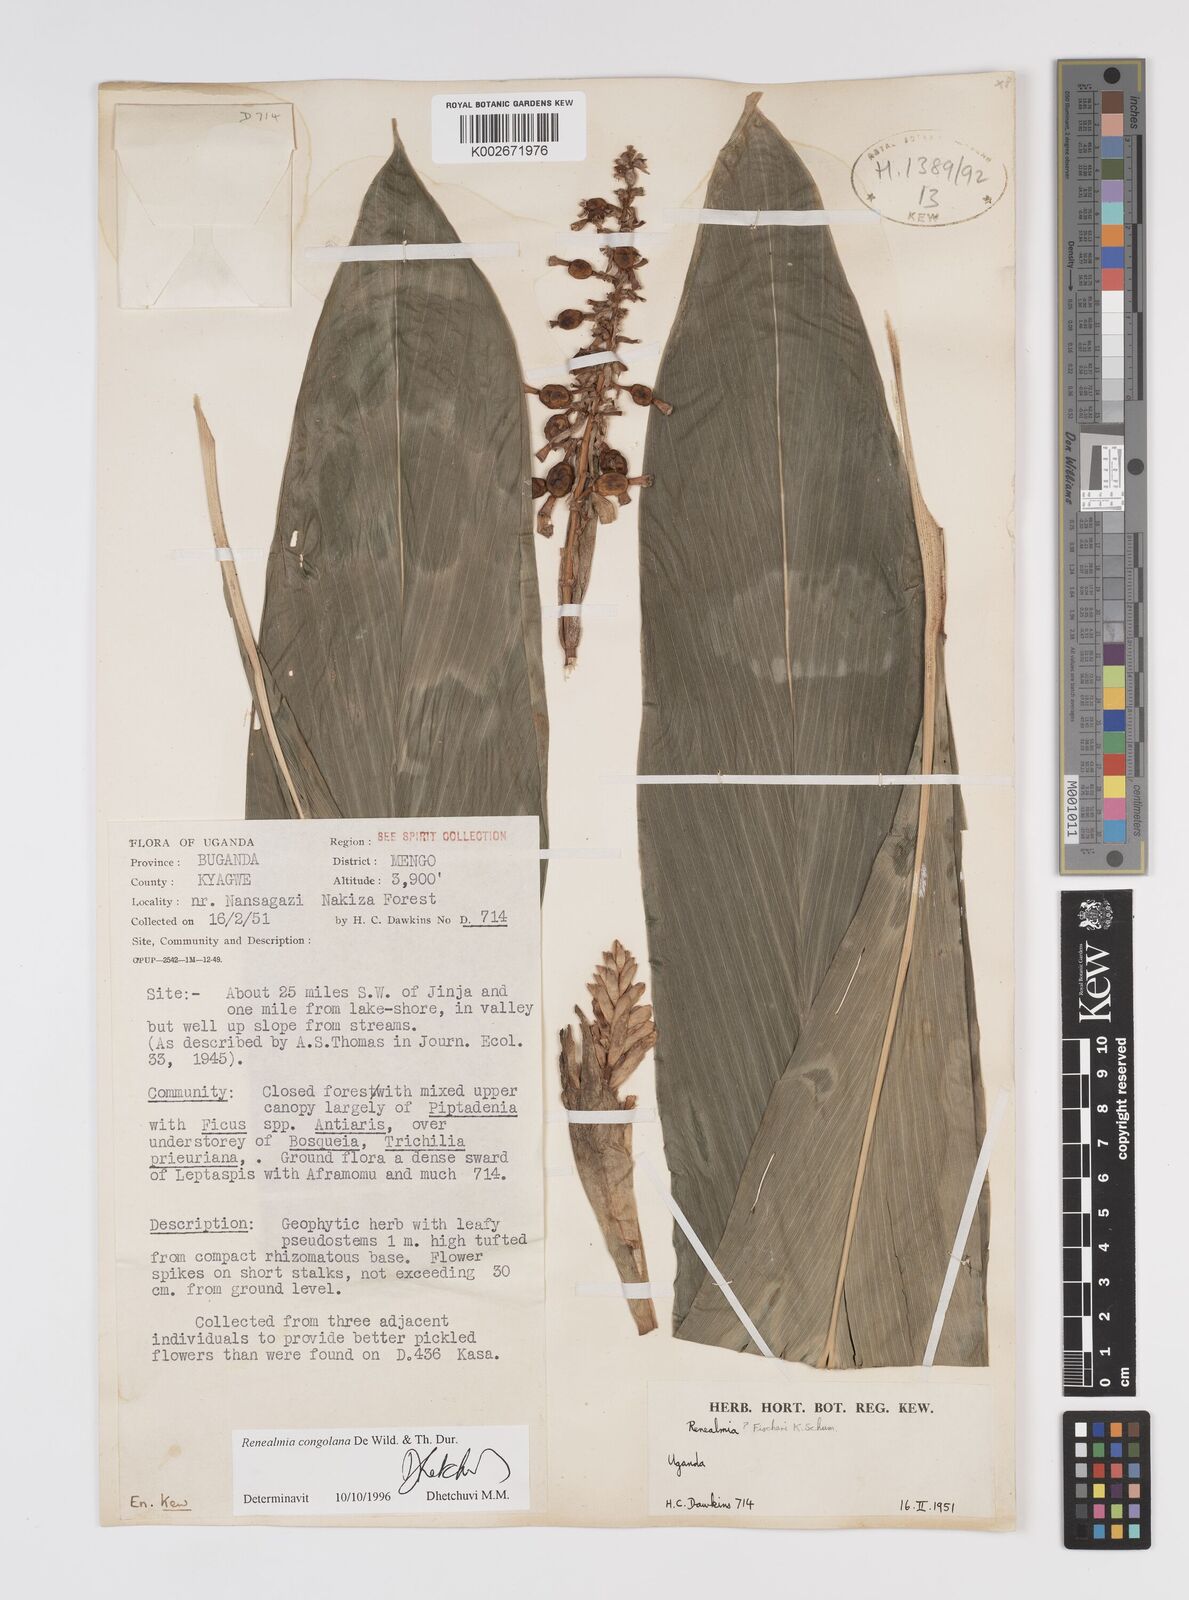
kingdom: Plantae
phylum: Tracheophyta
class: Liliopsida
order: Zingiberales
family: Zingiberaceae
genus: Renealmia
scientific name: Renealmia congolana
